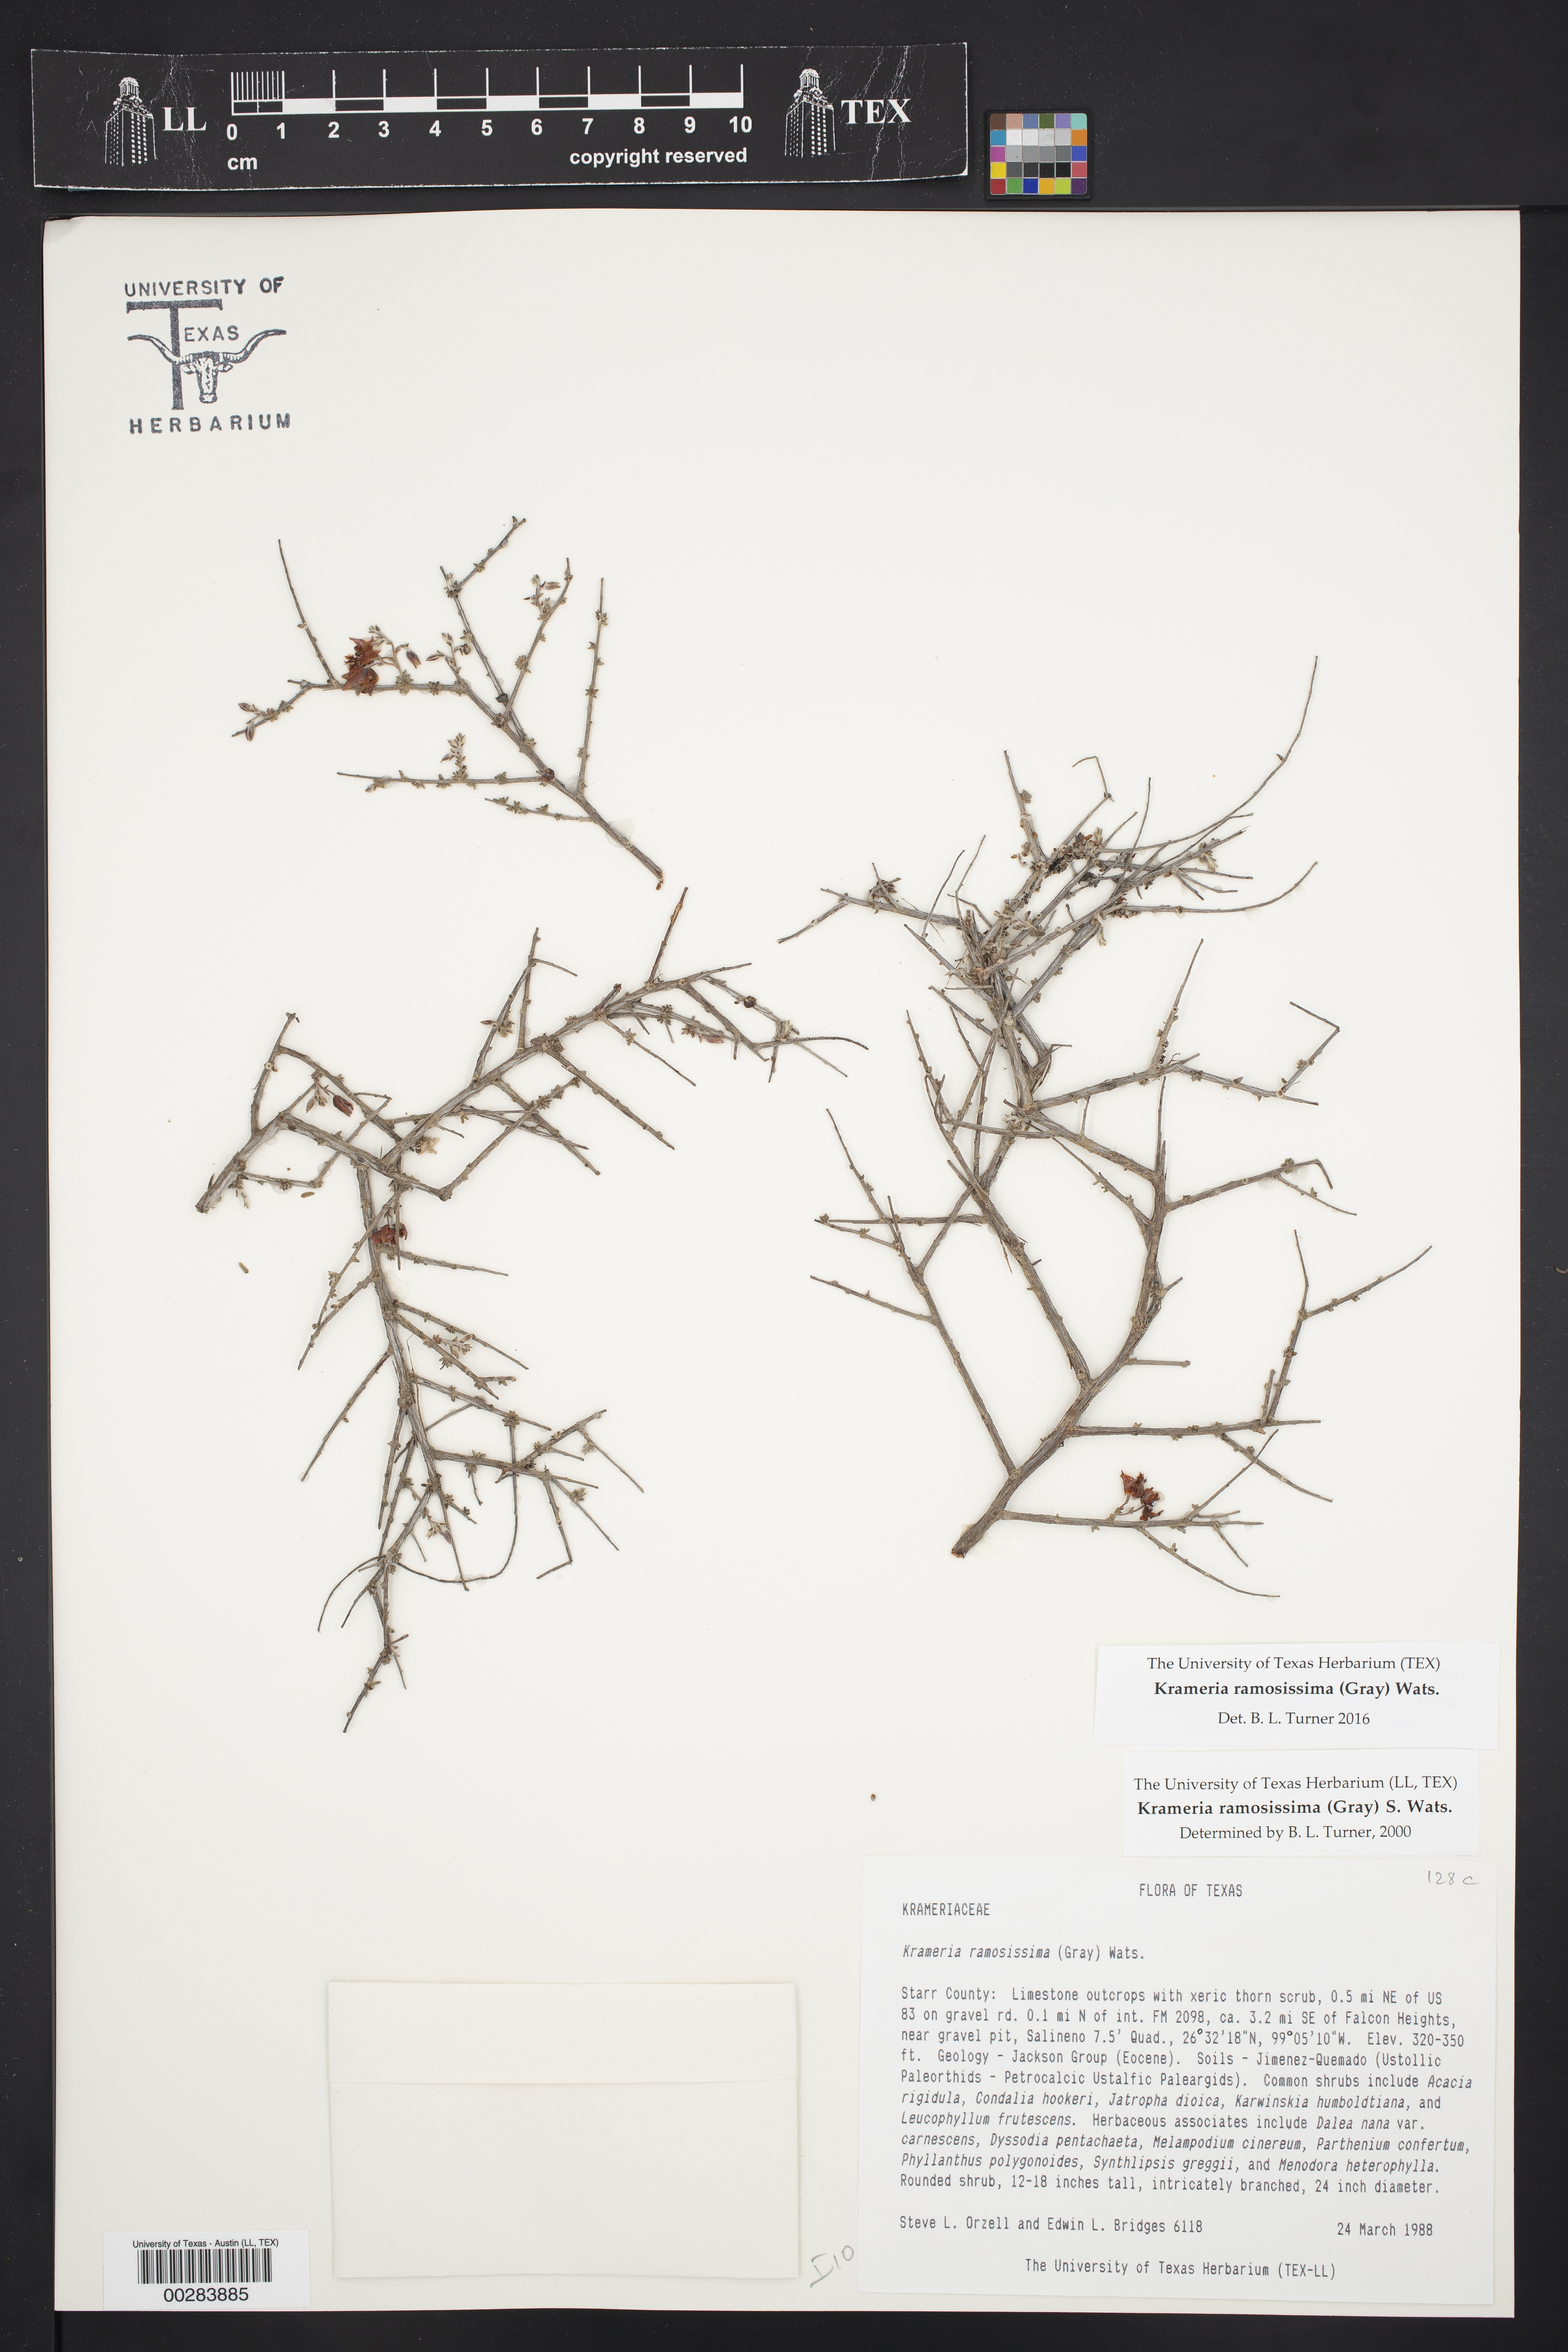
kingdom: Plantae
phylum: Tracheophyta
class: Magnoliopsida
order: Zygophyllales
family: Krameriaceae
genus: Krameria
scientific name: Krameria ramosissima
